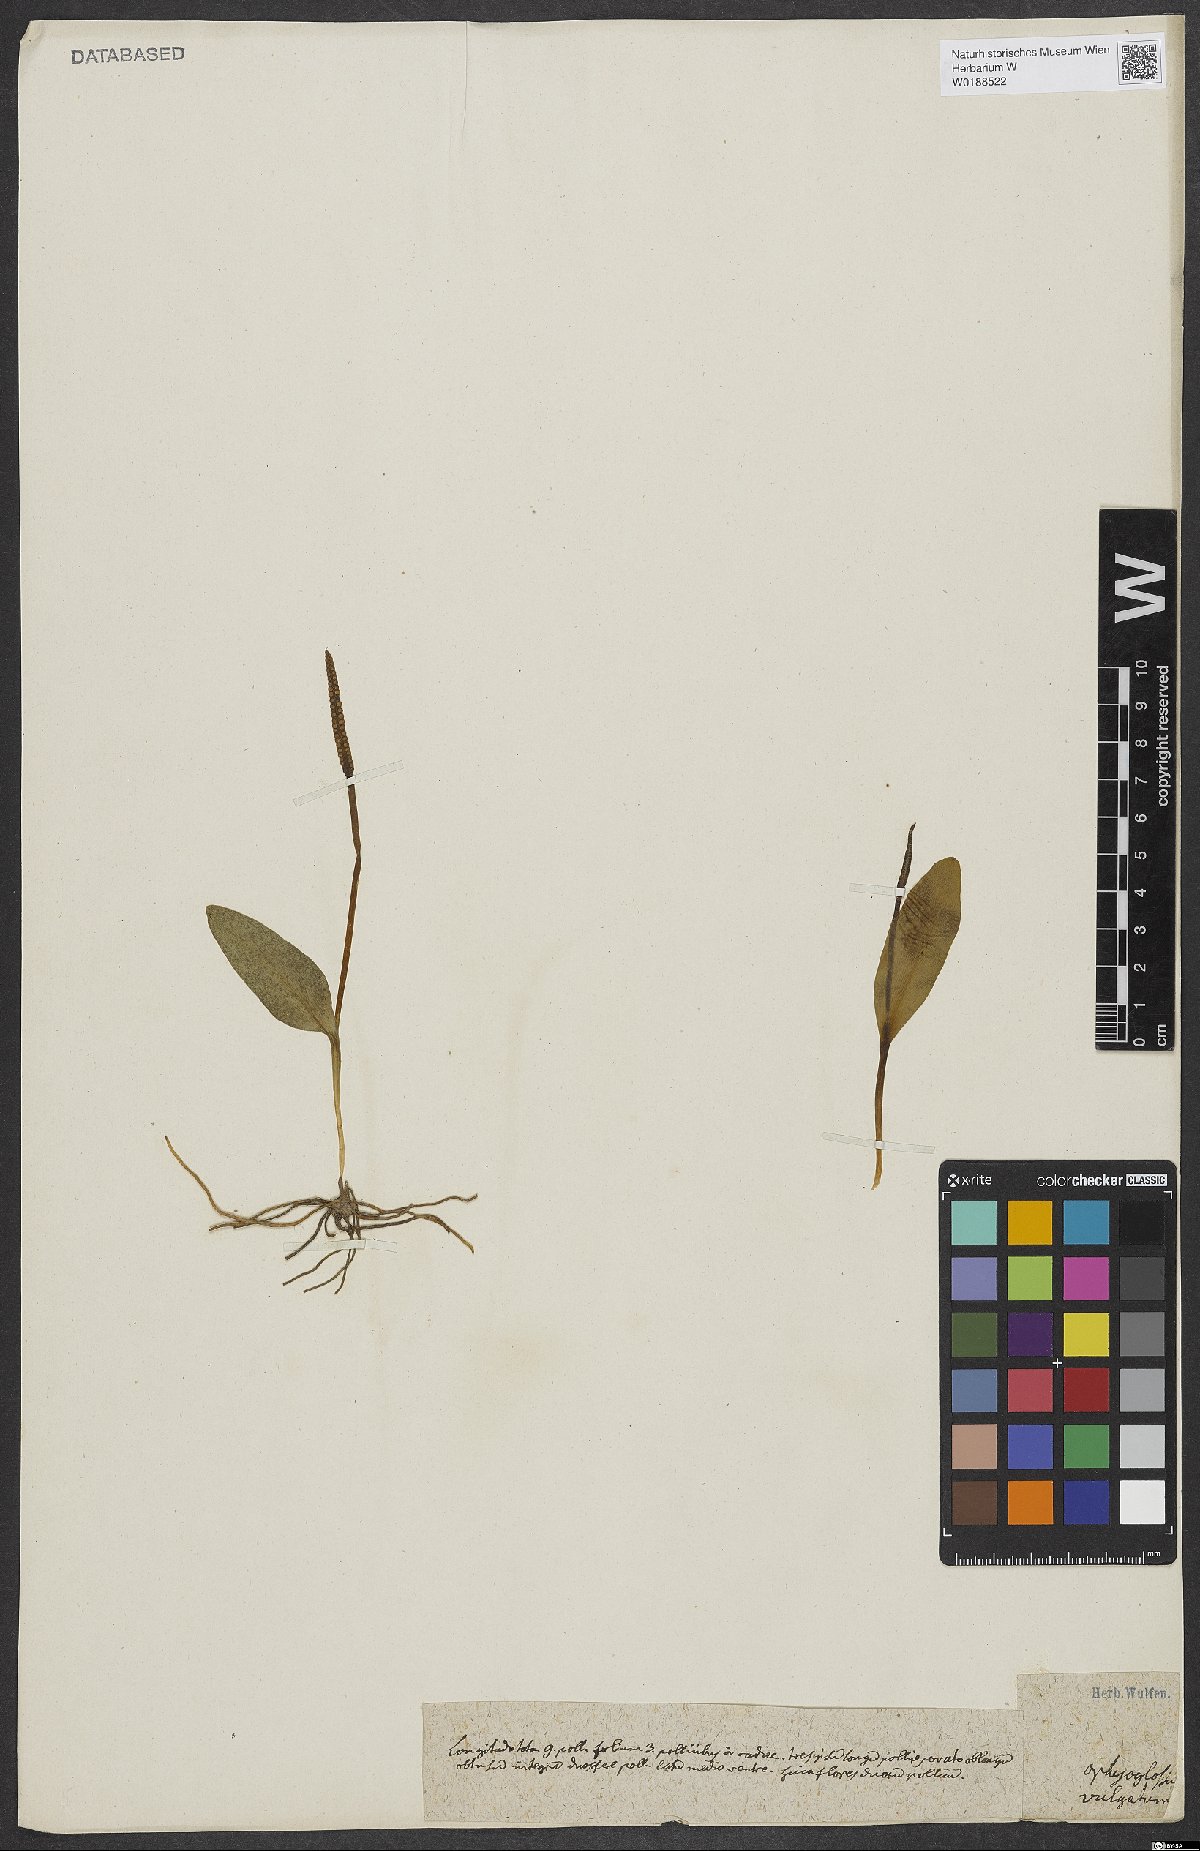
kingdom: Plantae
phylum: Tracheophyta
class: Polypodiopsida
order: Ophioglossales
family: Ophioglossaceae
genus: Ophioglossum
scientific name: Ophioglossum vulgatum
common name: Adder's-tongue
